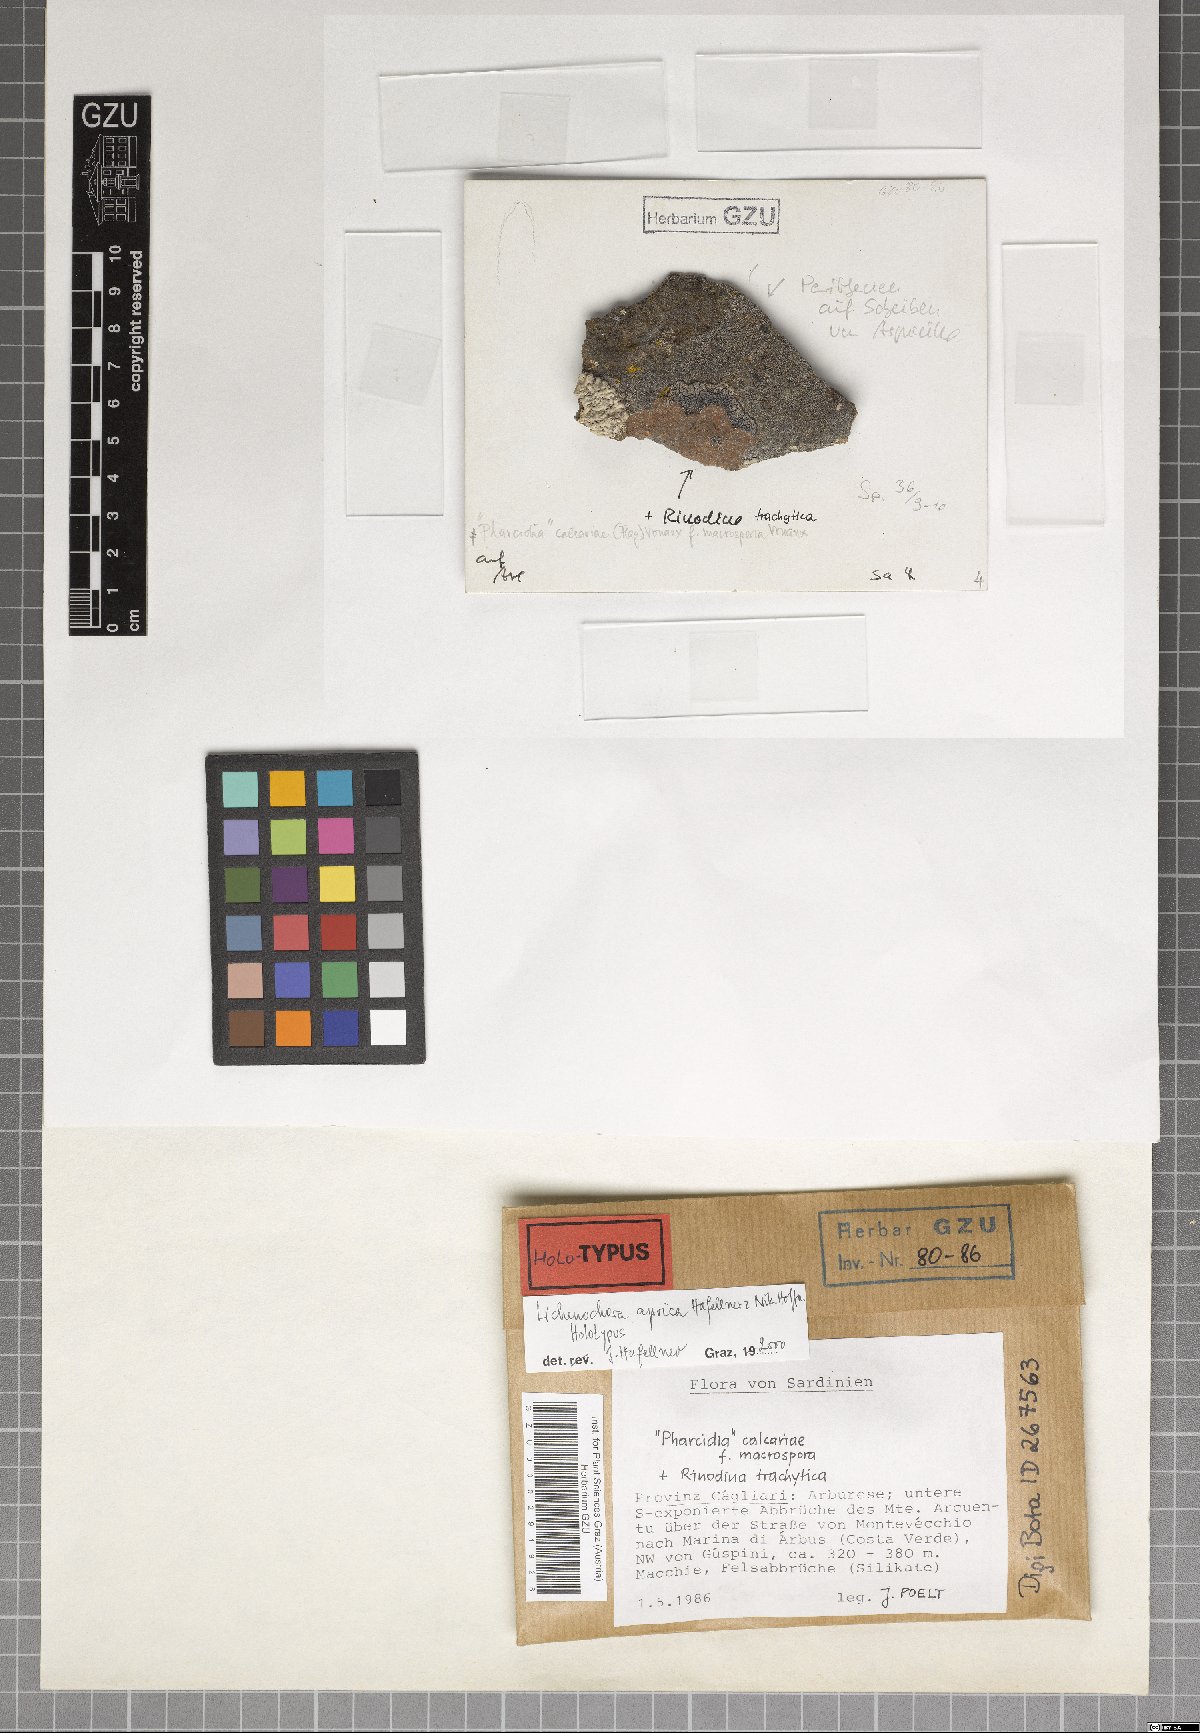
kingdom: Fungi
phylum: Ascomycota
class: Sordariomycetes
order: Phyllachorales
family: Phyllachoraceae
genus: Lichenochora
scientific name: Lichenochora aprica
